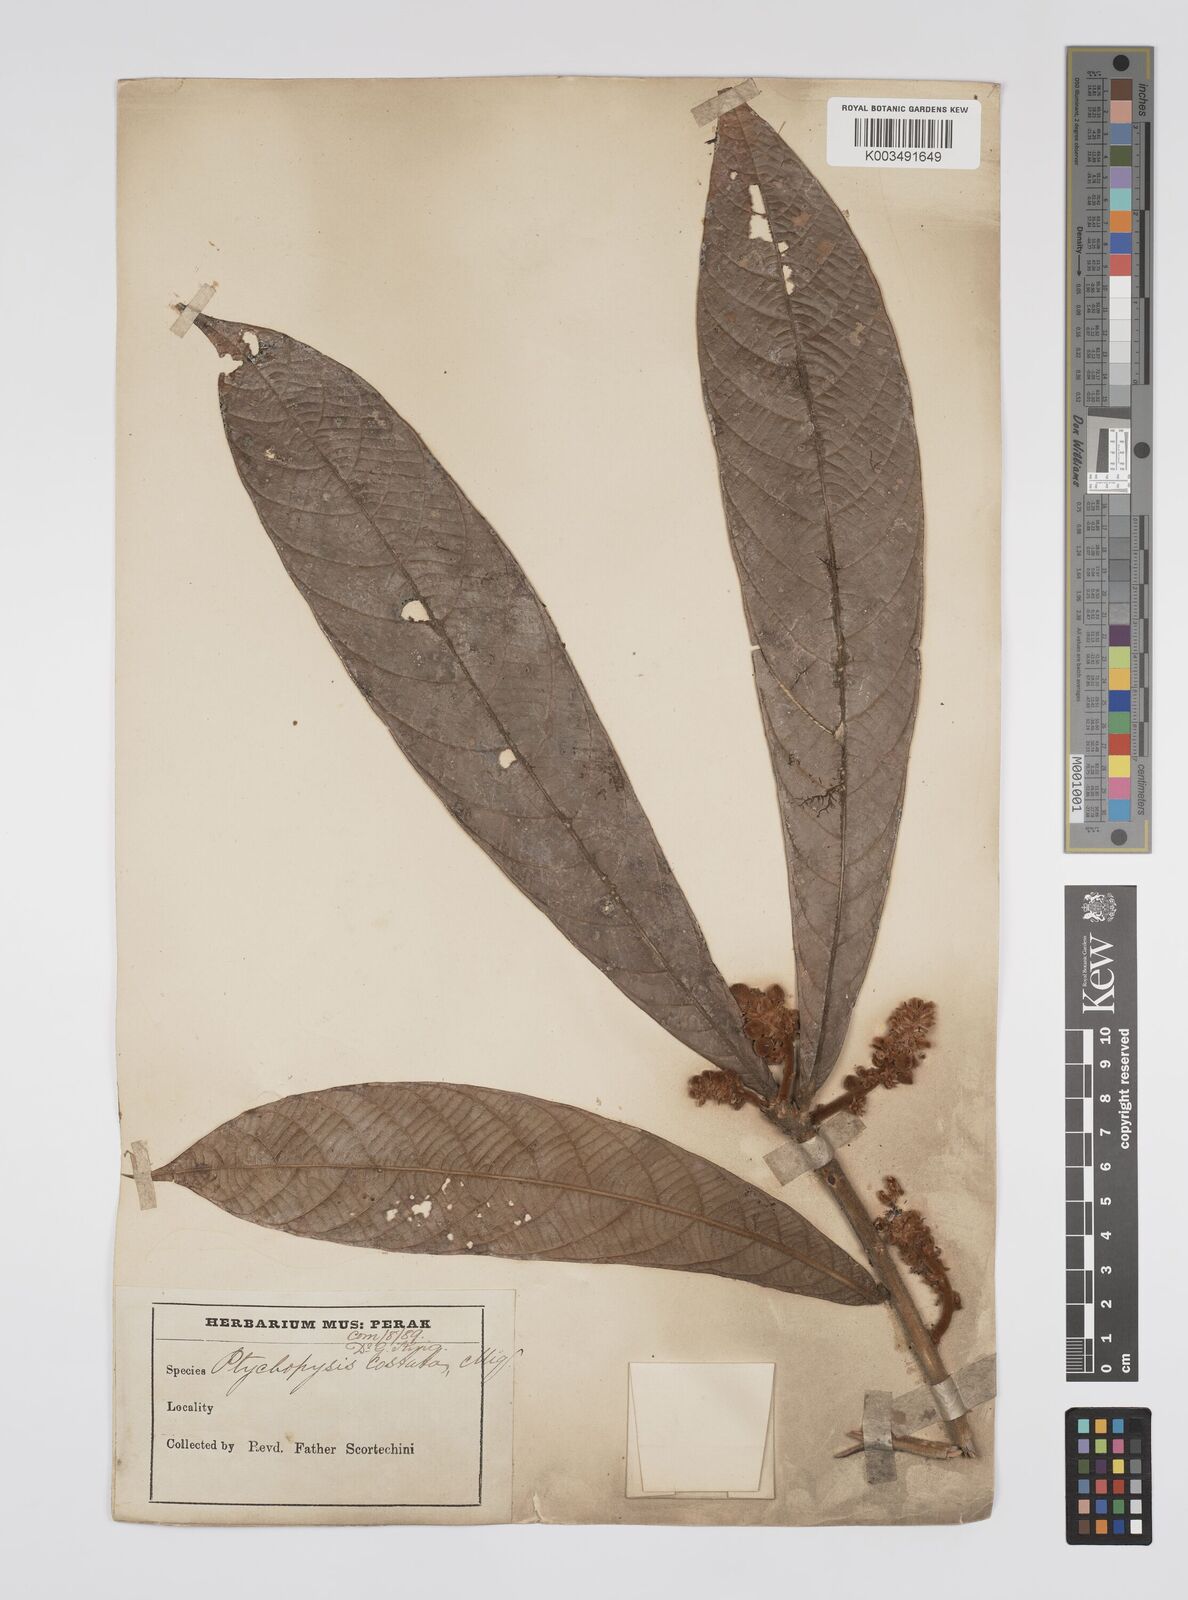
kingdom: Plantae
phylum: Tracheophyta
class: Magnoliopsida
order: Malpighiales
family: Euphorbiaceae
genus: Ptychopyxis
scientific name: Ptychopyxis costata
